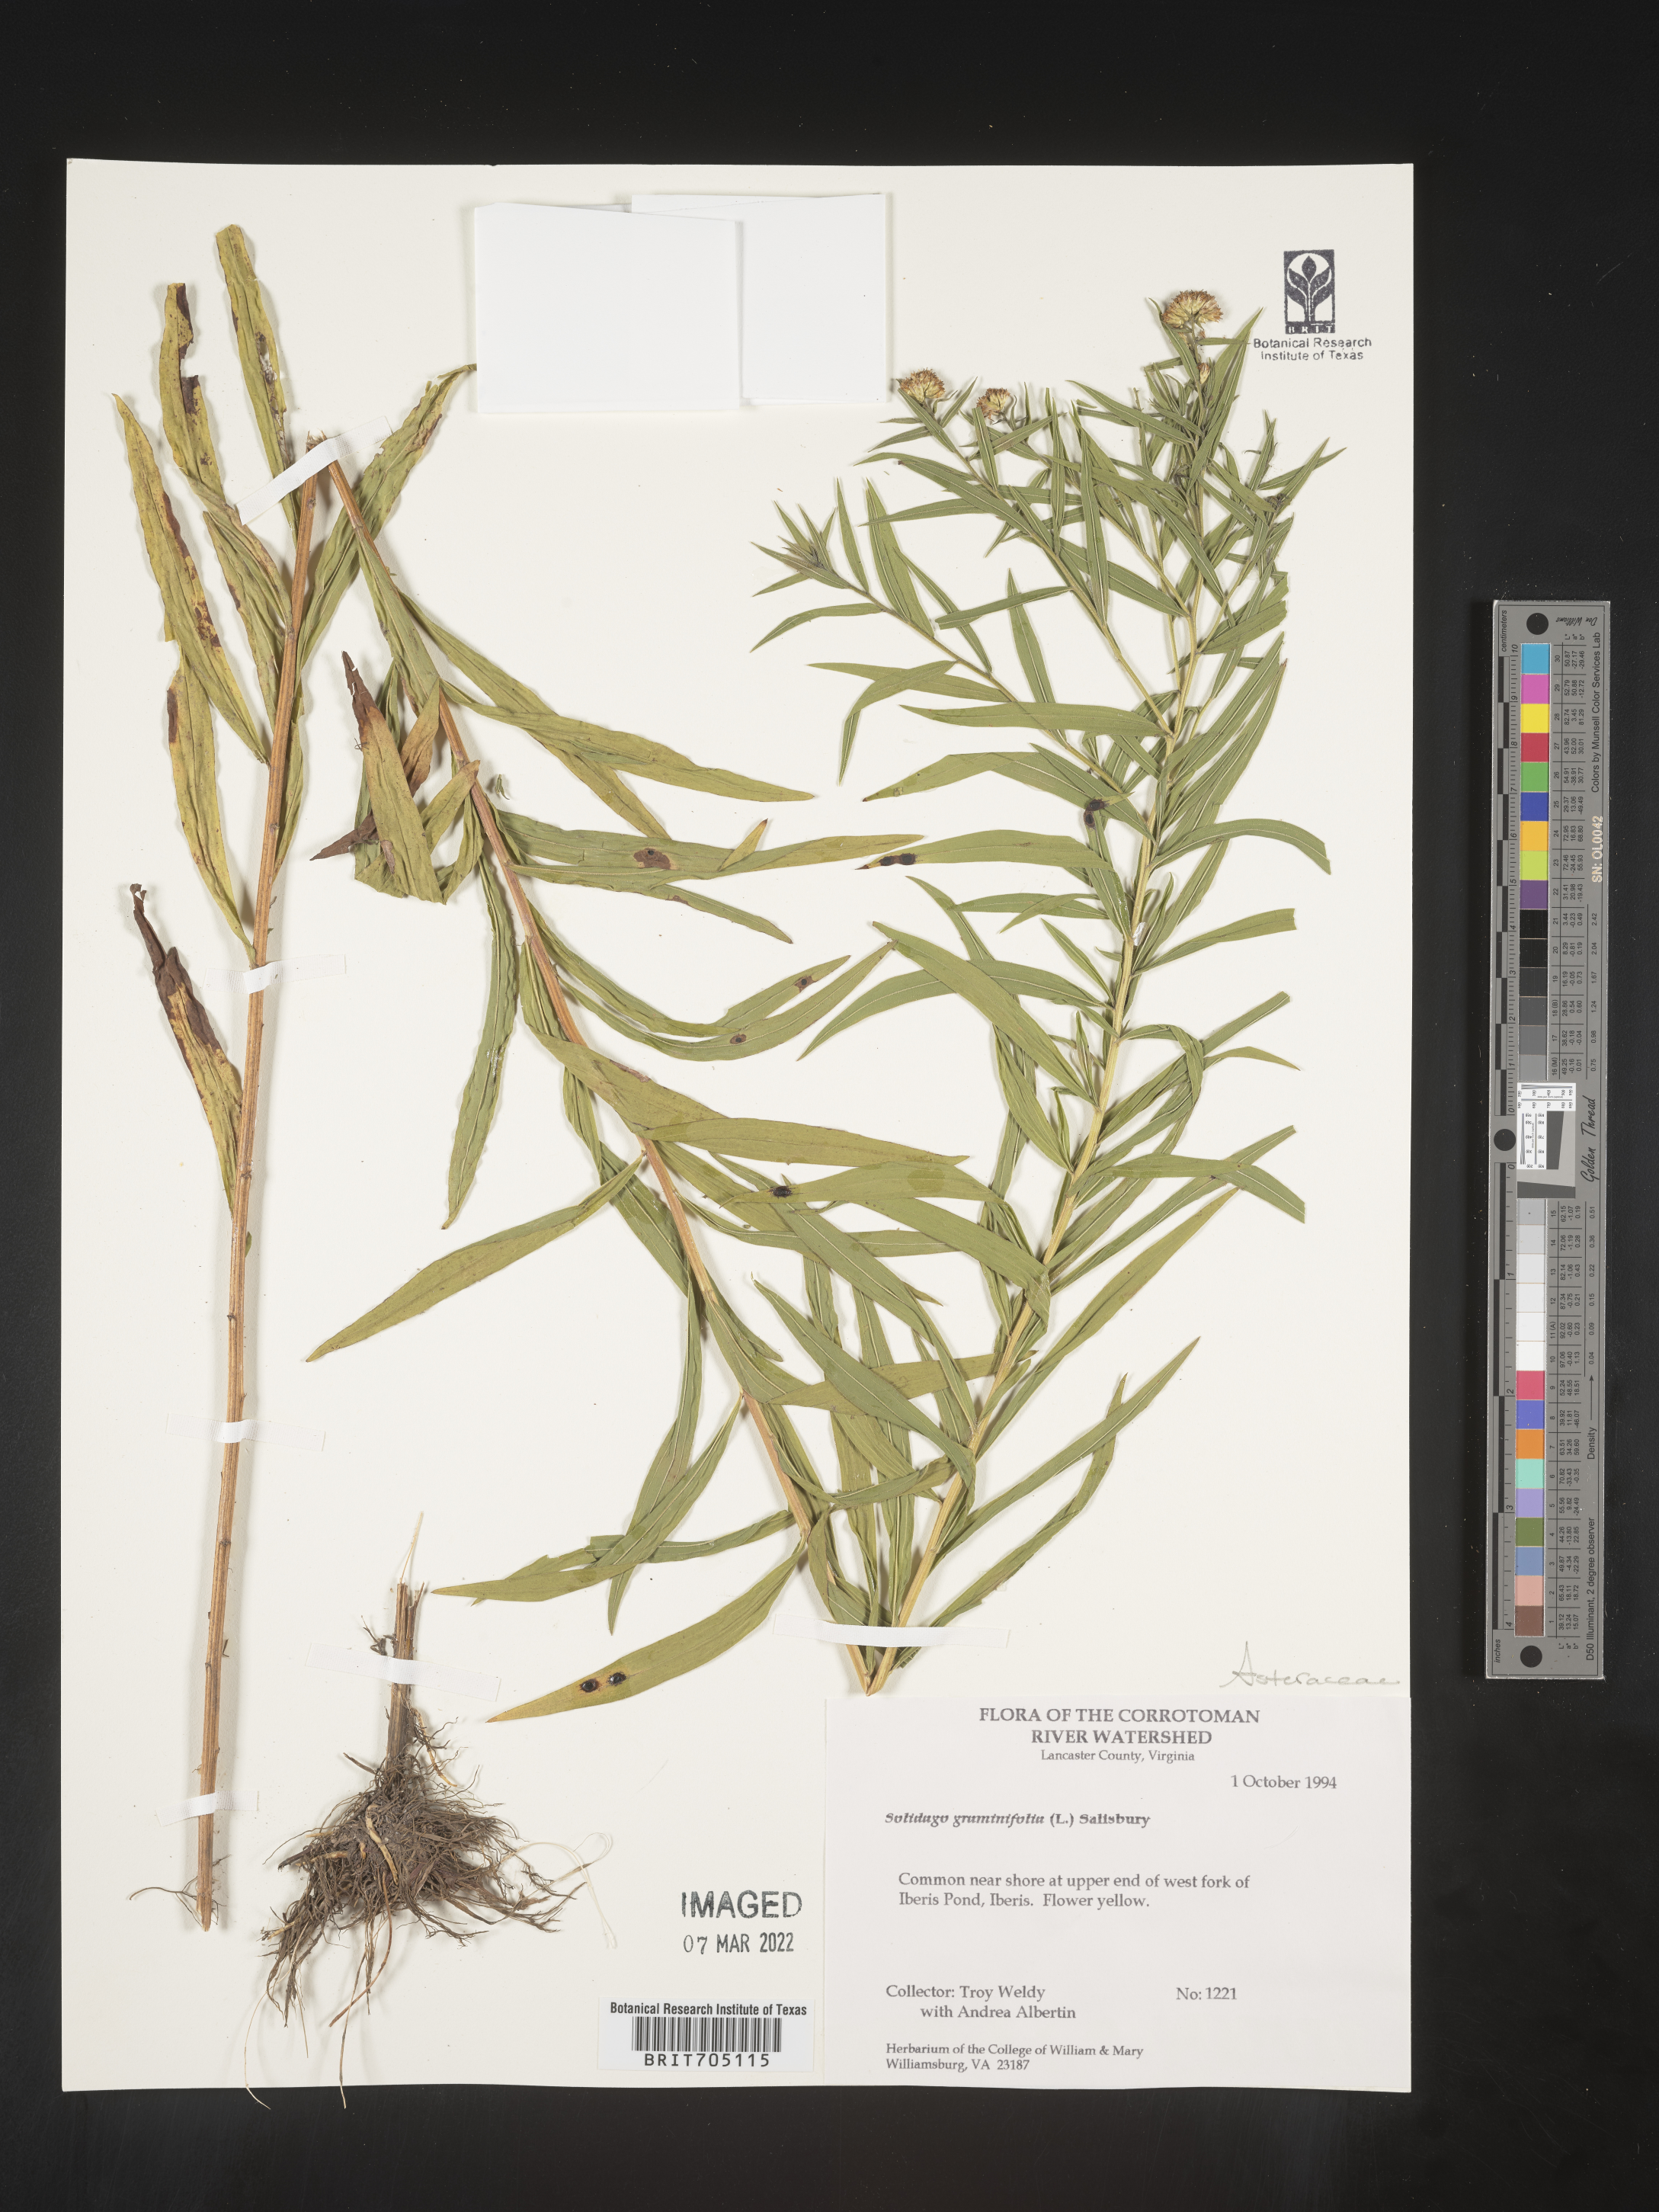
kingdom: Plantae
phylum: Tracheophyta
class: Magnoliopsida
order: Asterales
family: Asteraceae
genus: Euthamia
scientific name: Euthamia graminifolia
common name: Common goldentop
